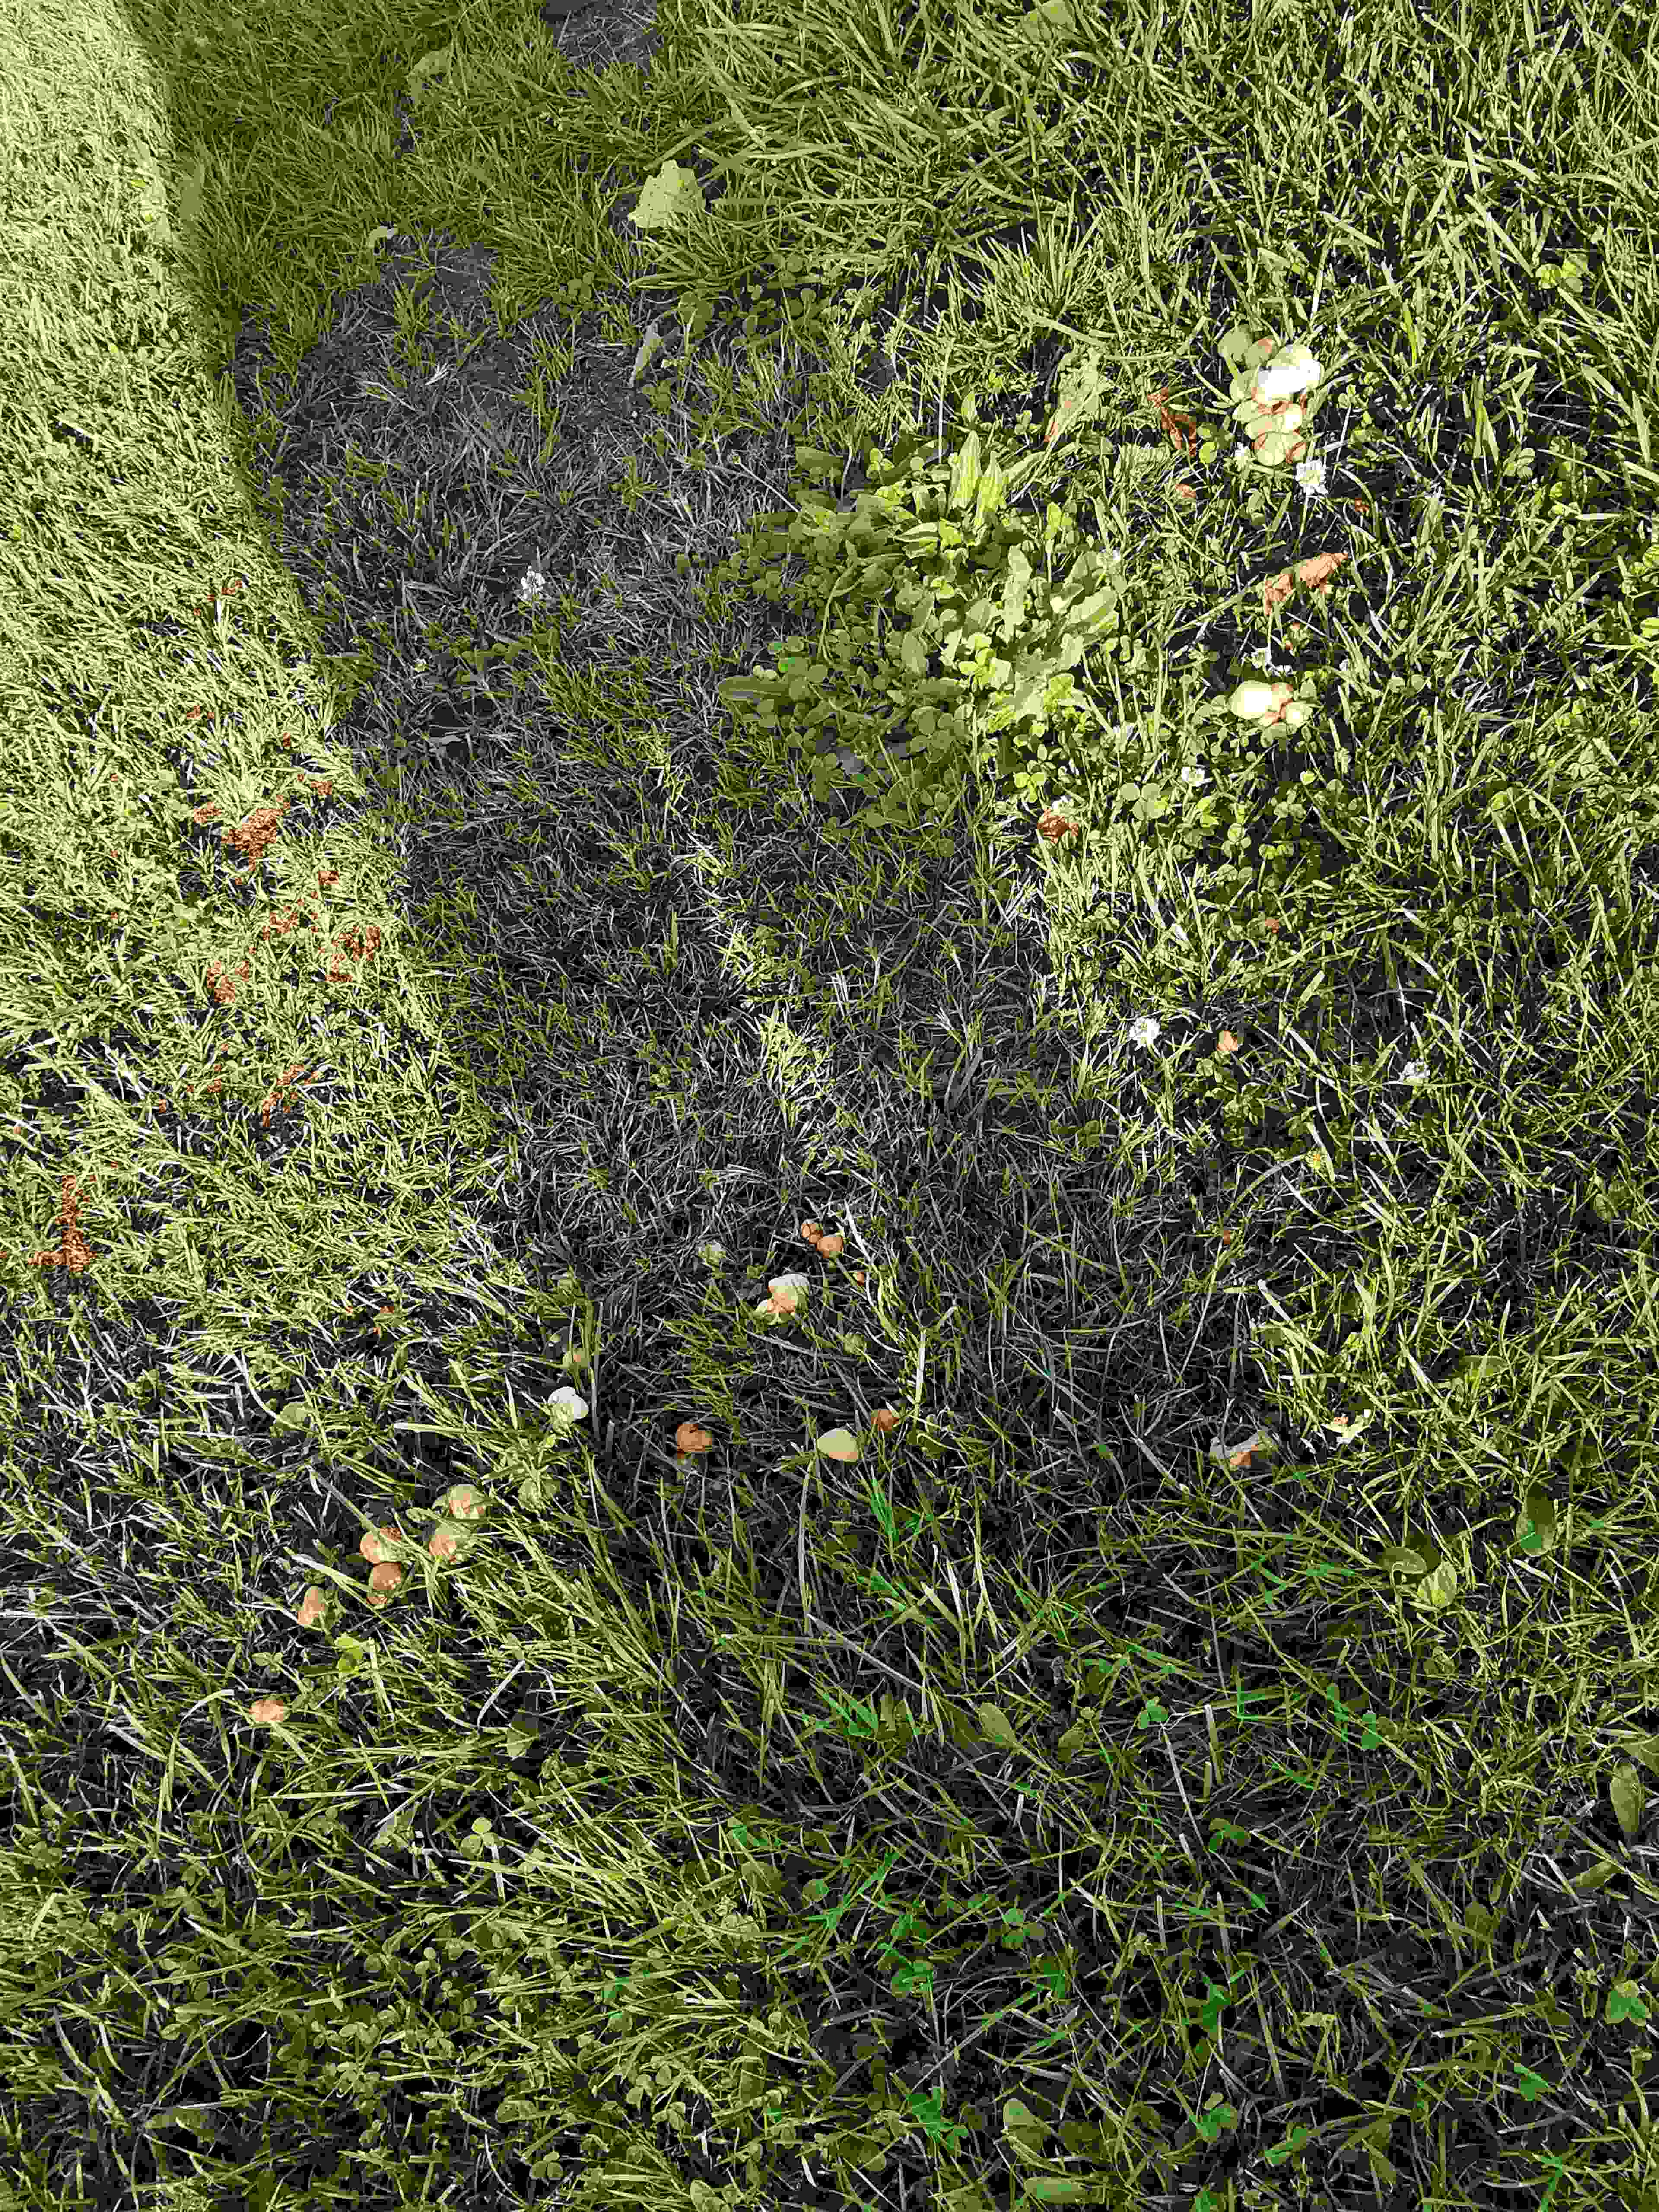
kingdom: Fungi
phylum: Basidiomycota
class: Agaricomycetes
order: Agaricales
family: Marasmiaceae
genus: Marasmius
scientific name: Marasmius oreades
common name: elledans-bruskhat
